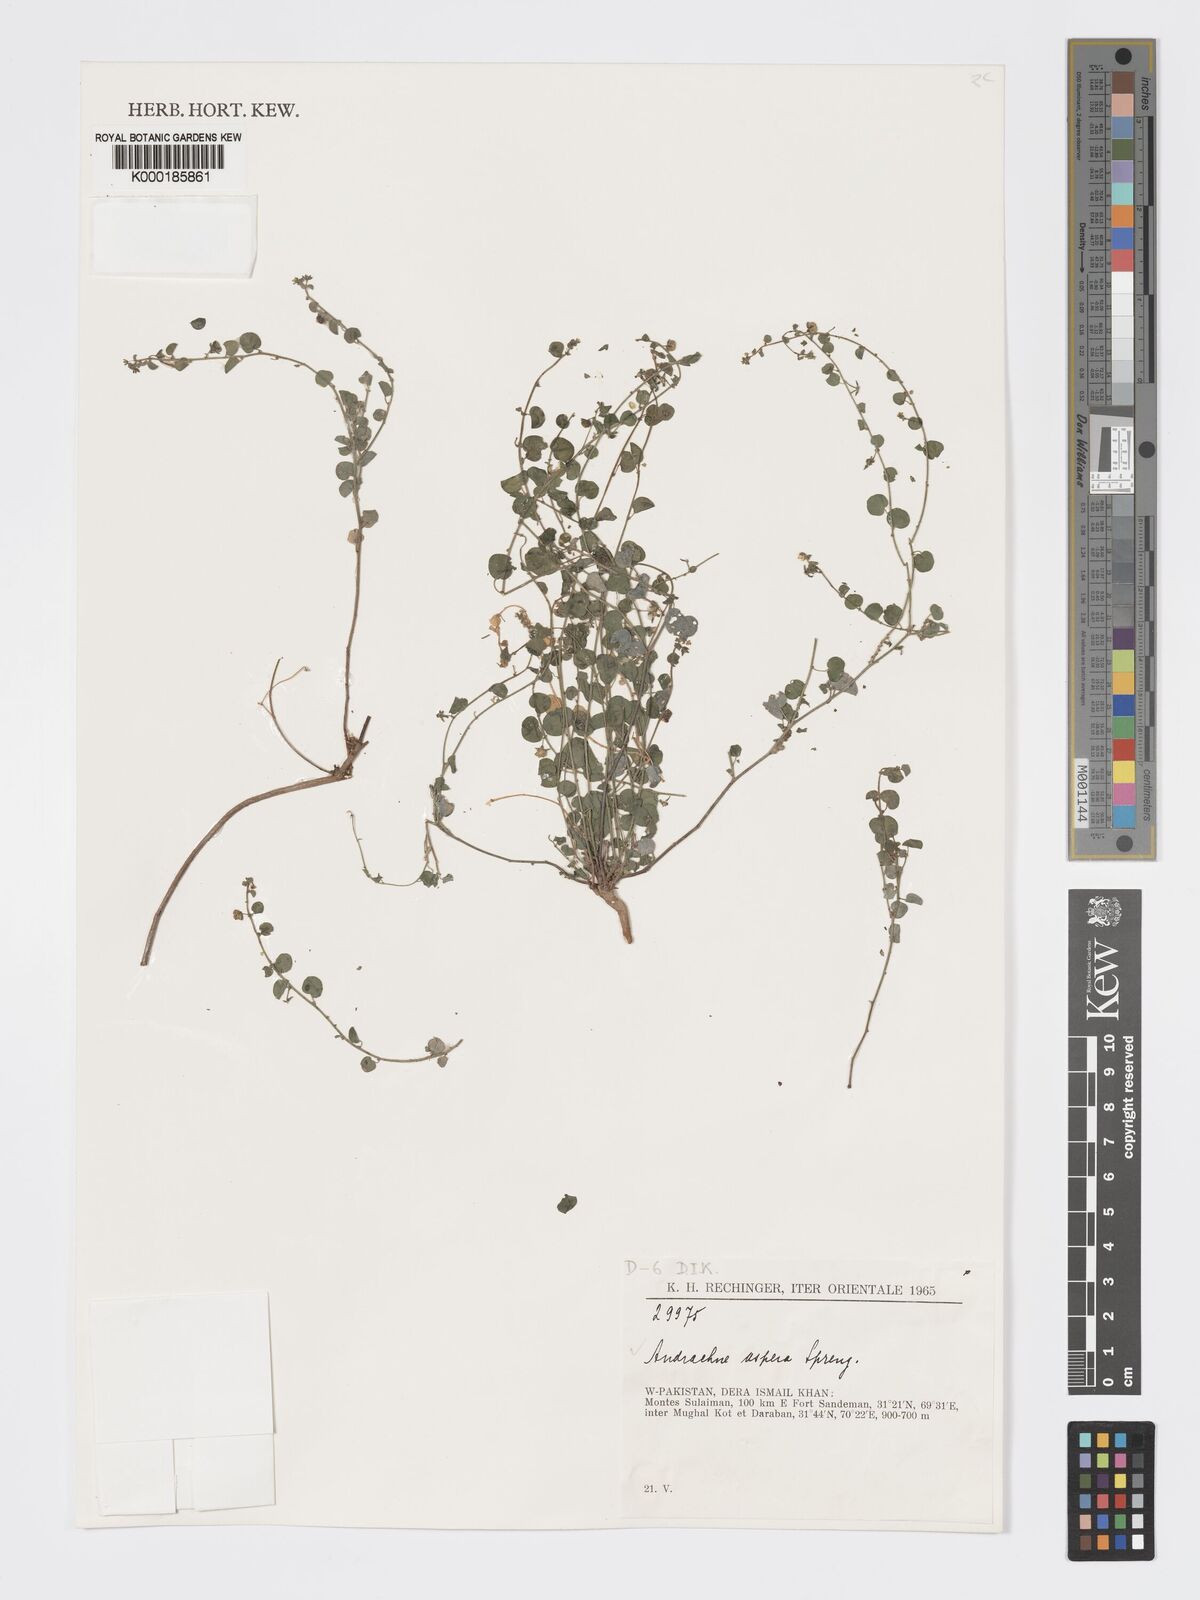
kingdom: Plantae
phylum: Tracheophyta
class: Magnoliopsida
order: Malpighiales
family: Phyllanthaceae
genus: Andrachne
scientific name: Andrachne aspera
